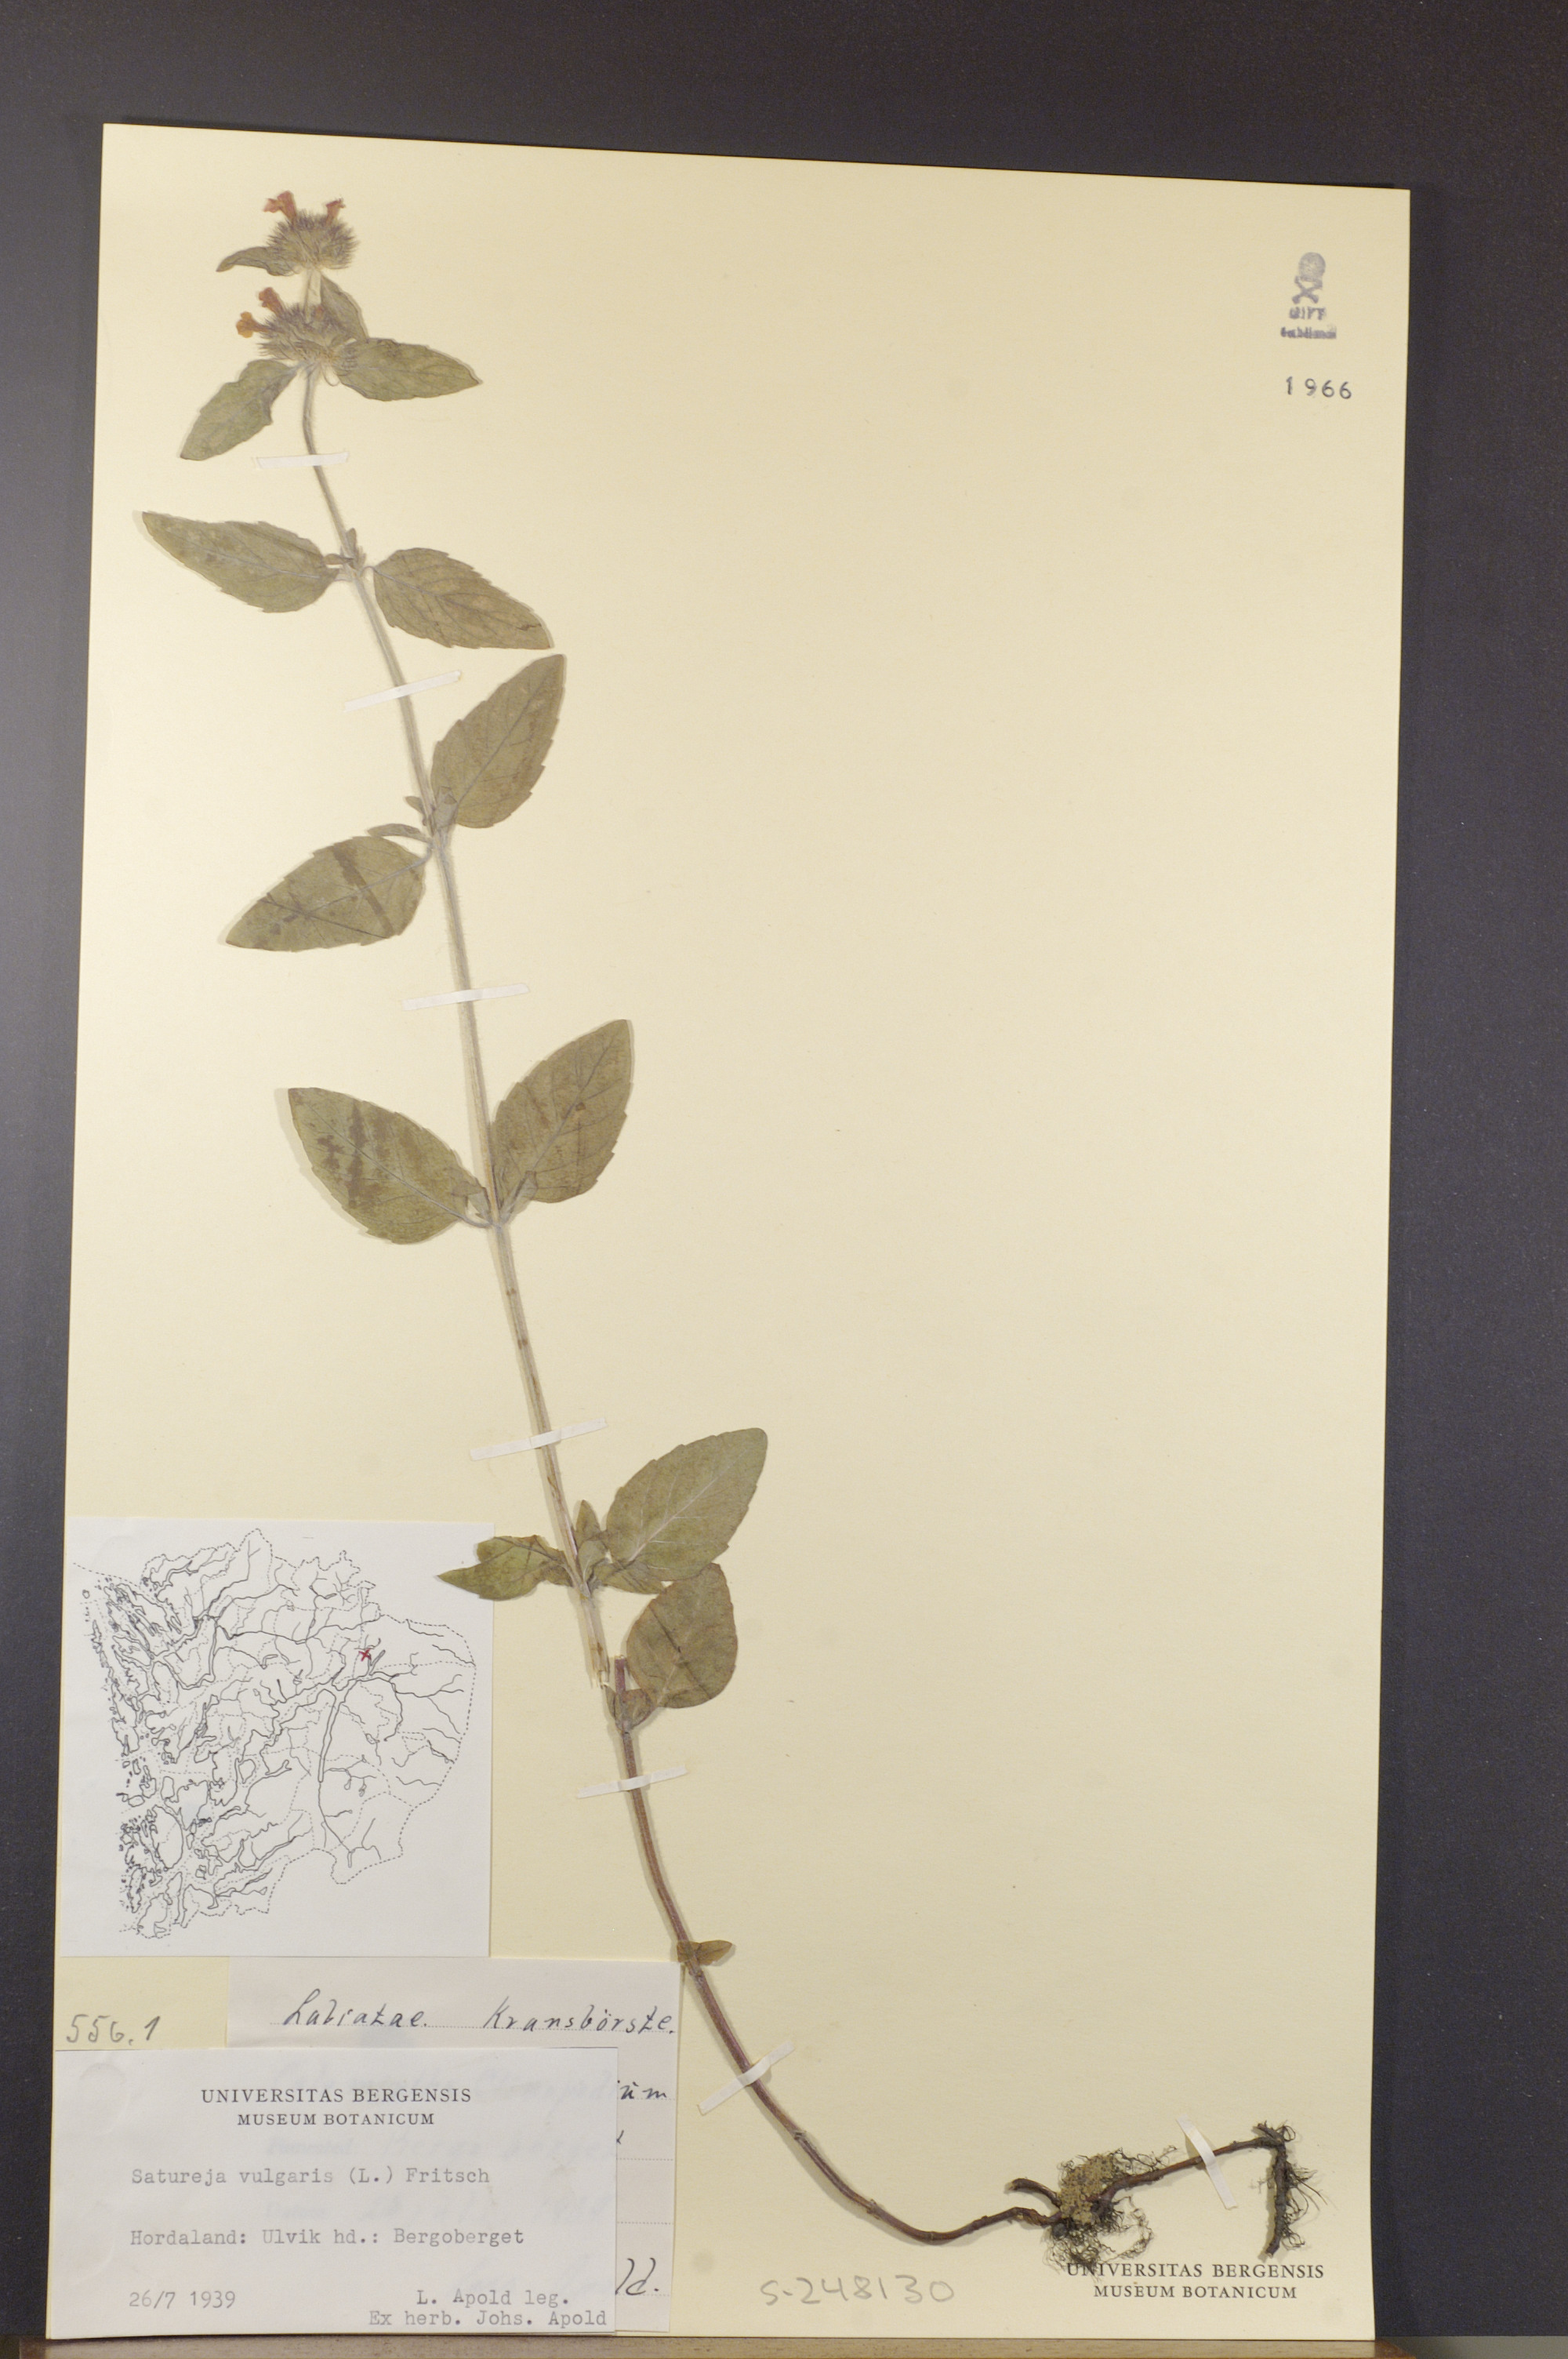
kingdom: Plantae
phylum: Tracheophyta
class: Magnoliopsida
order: Lamiales
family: Lamiaceae
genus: Clinopodium
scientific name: Clinopodium vulgare
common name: Wild basil
